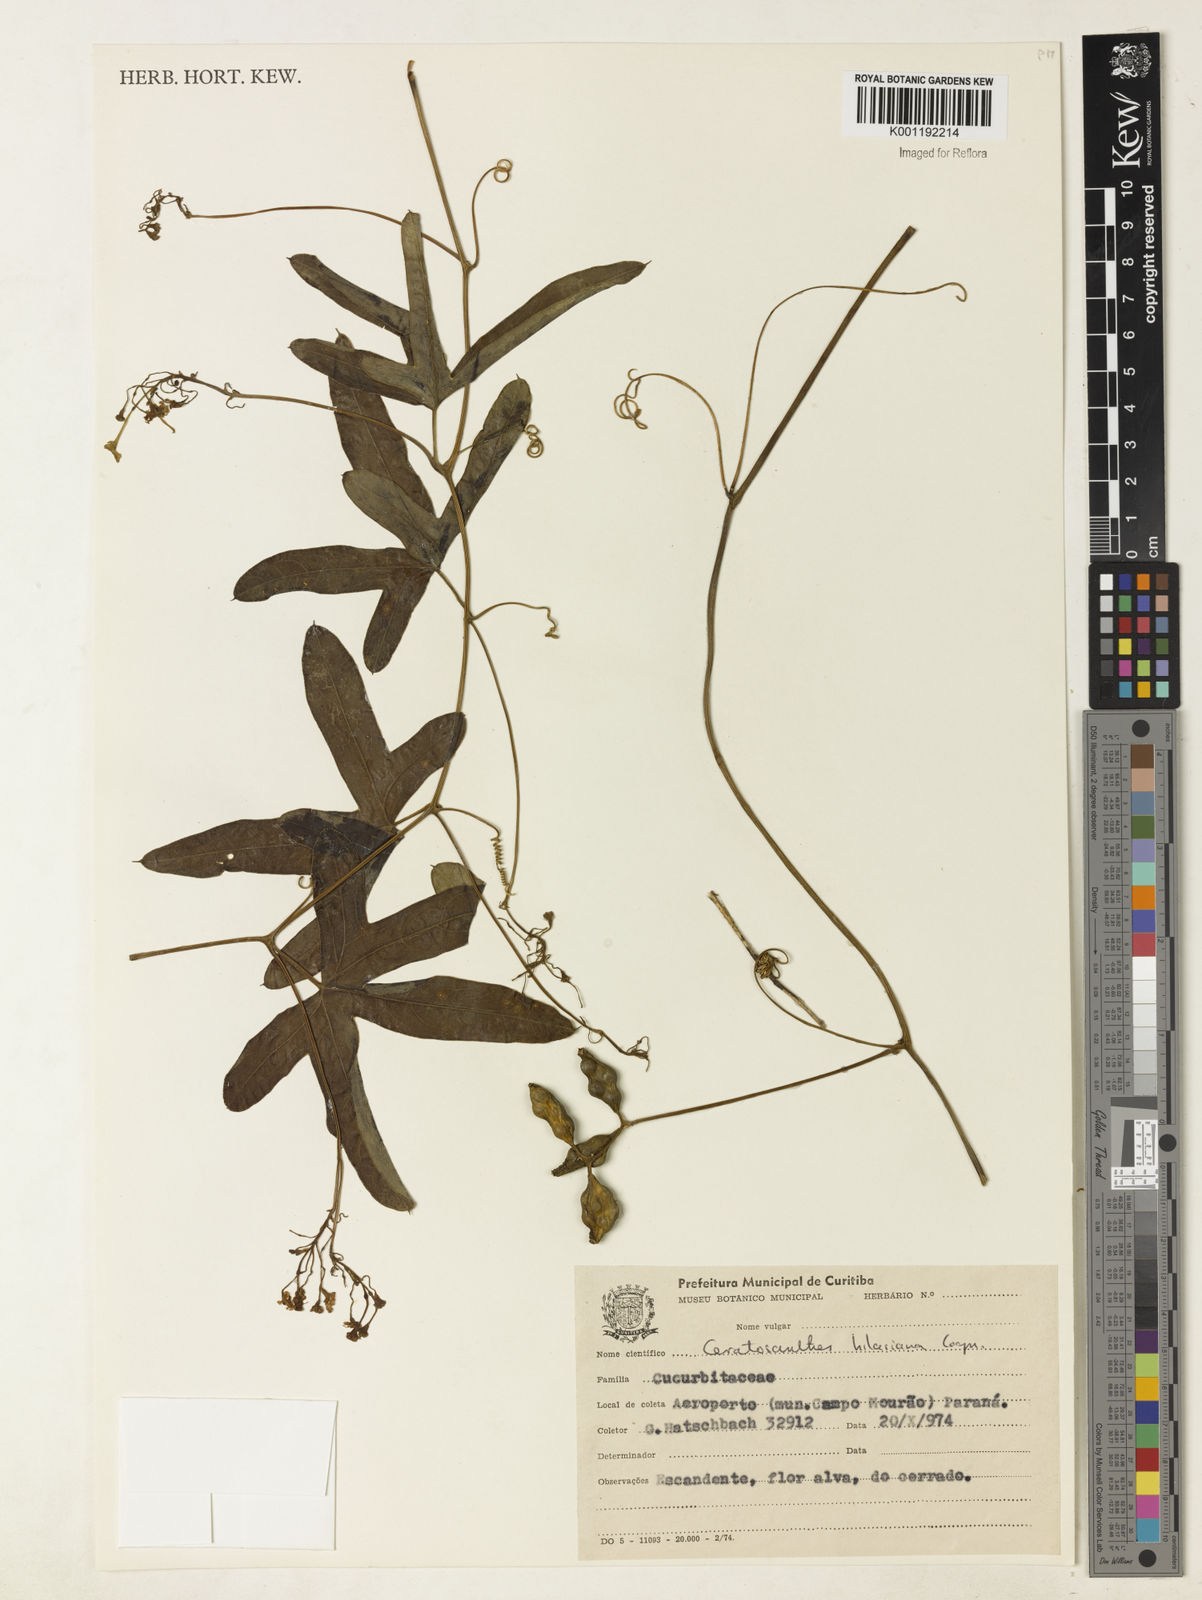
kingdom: Plantae
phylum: Tracheophyta
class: Magnoliopsida
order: Cucurbitales
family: Cucurbitaceae
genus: Ceratosanthes
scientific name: Ceratosanthes hilariana
